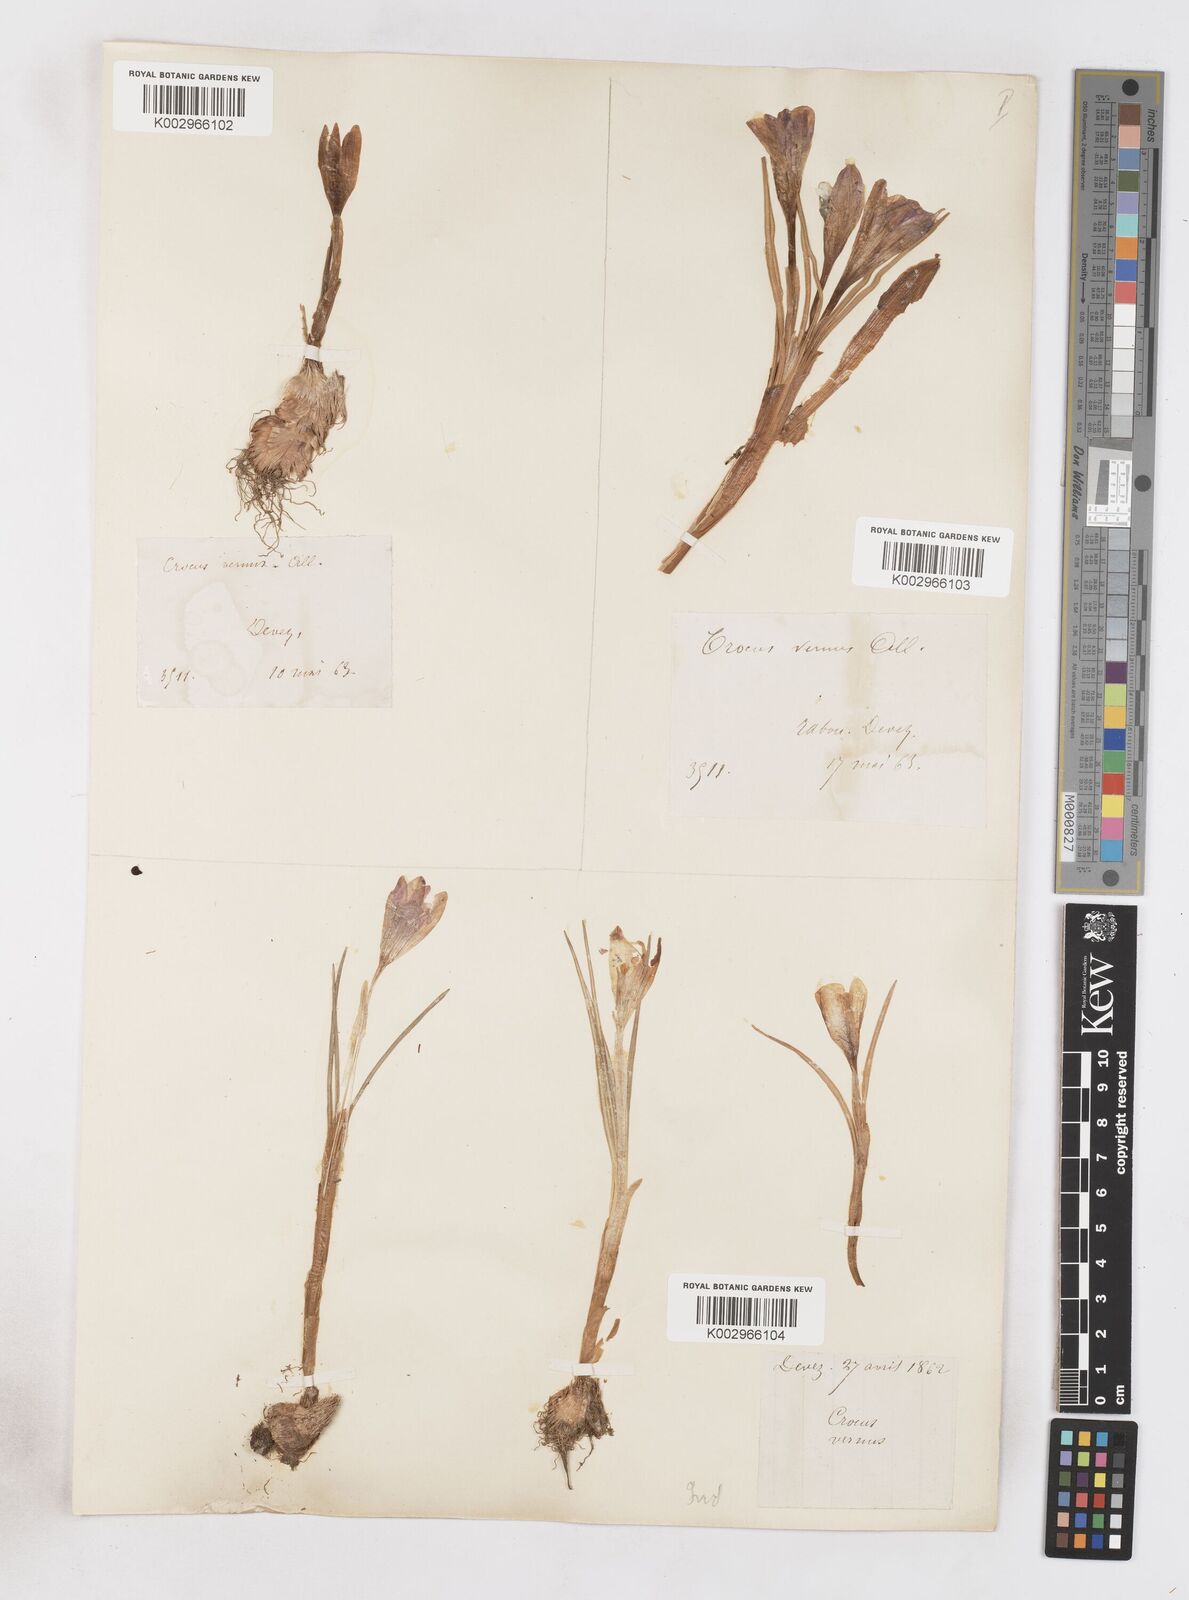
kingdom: Plantae
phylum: Tracheophyta
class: Liliopsida
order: Asparagales
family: Iridaceae
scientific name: Iridaceae
